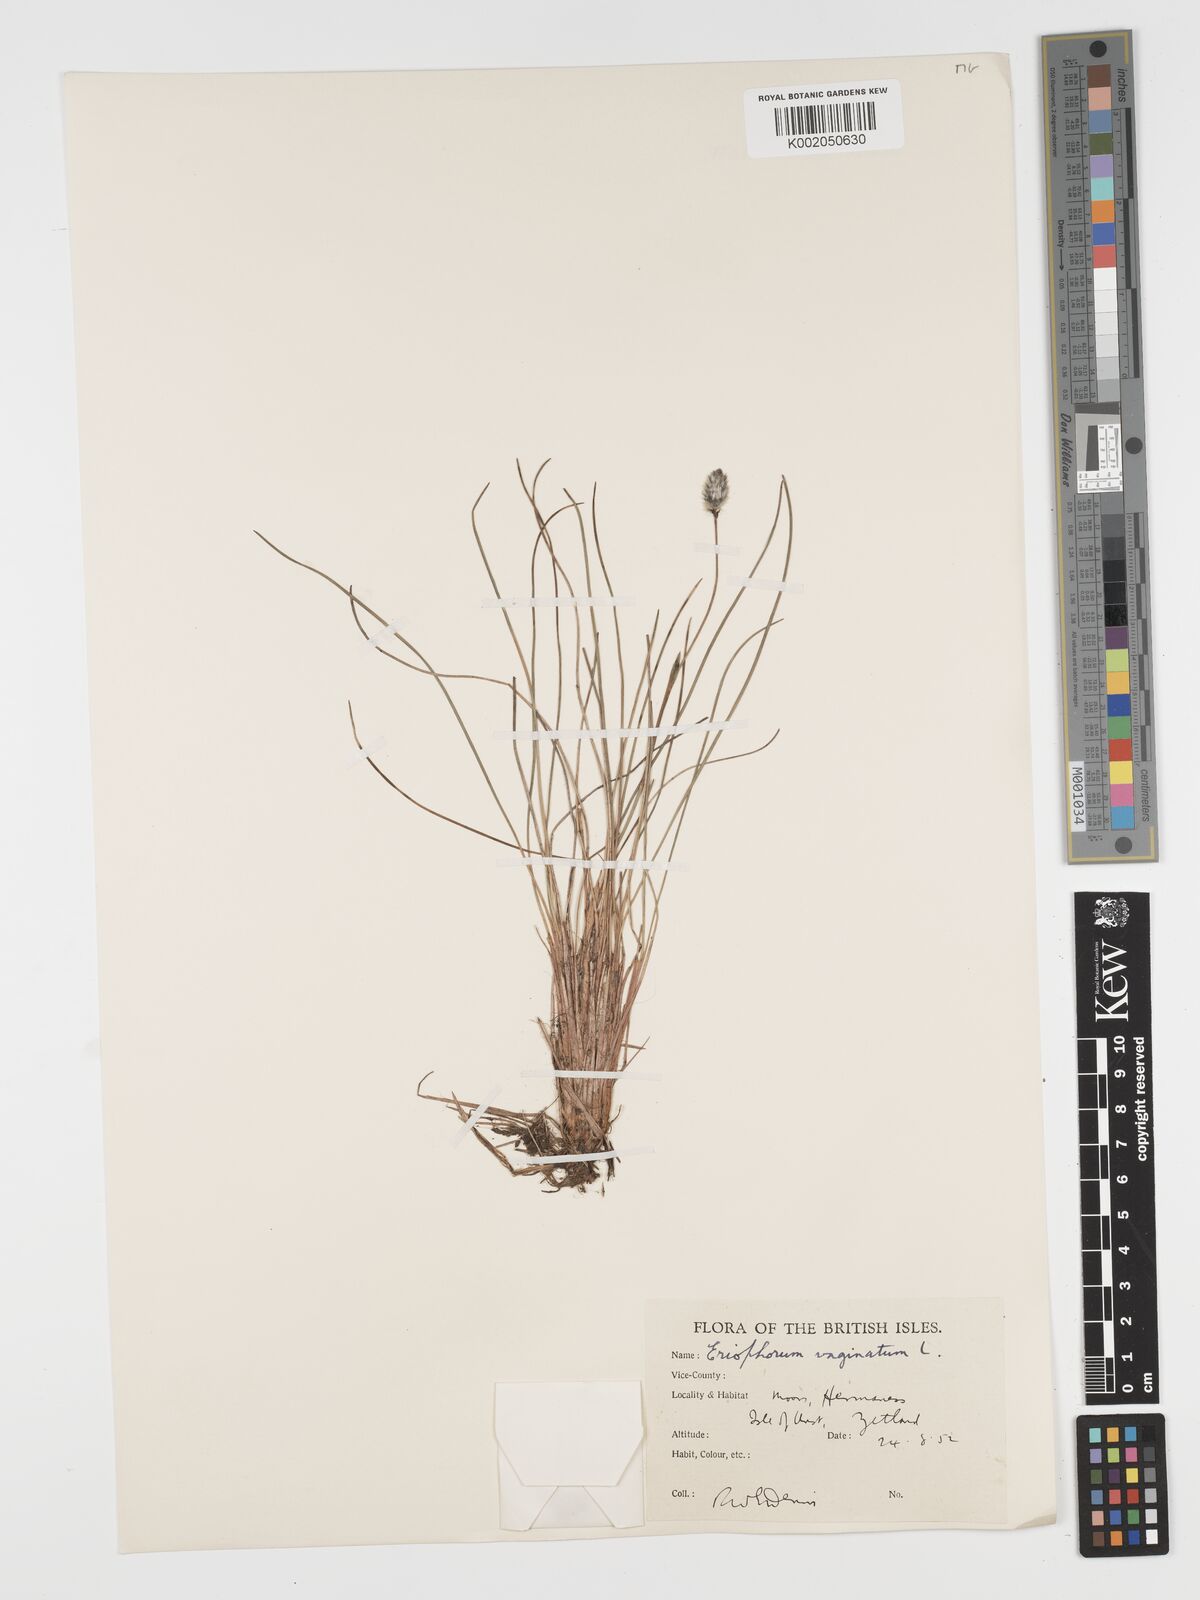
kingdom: Plantae
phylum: Tracheophyta
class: Liliopsida
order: Poales
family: Cyperaceae
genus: Eriophorum
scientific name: Eriophorum vaginatum
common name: Hare's-tail cottongrass
